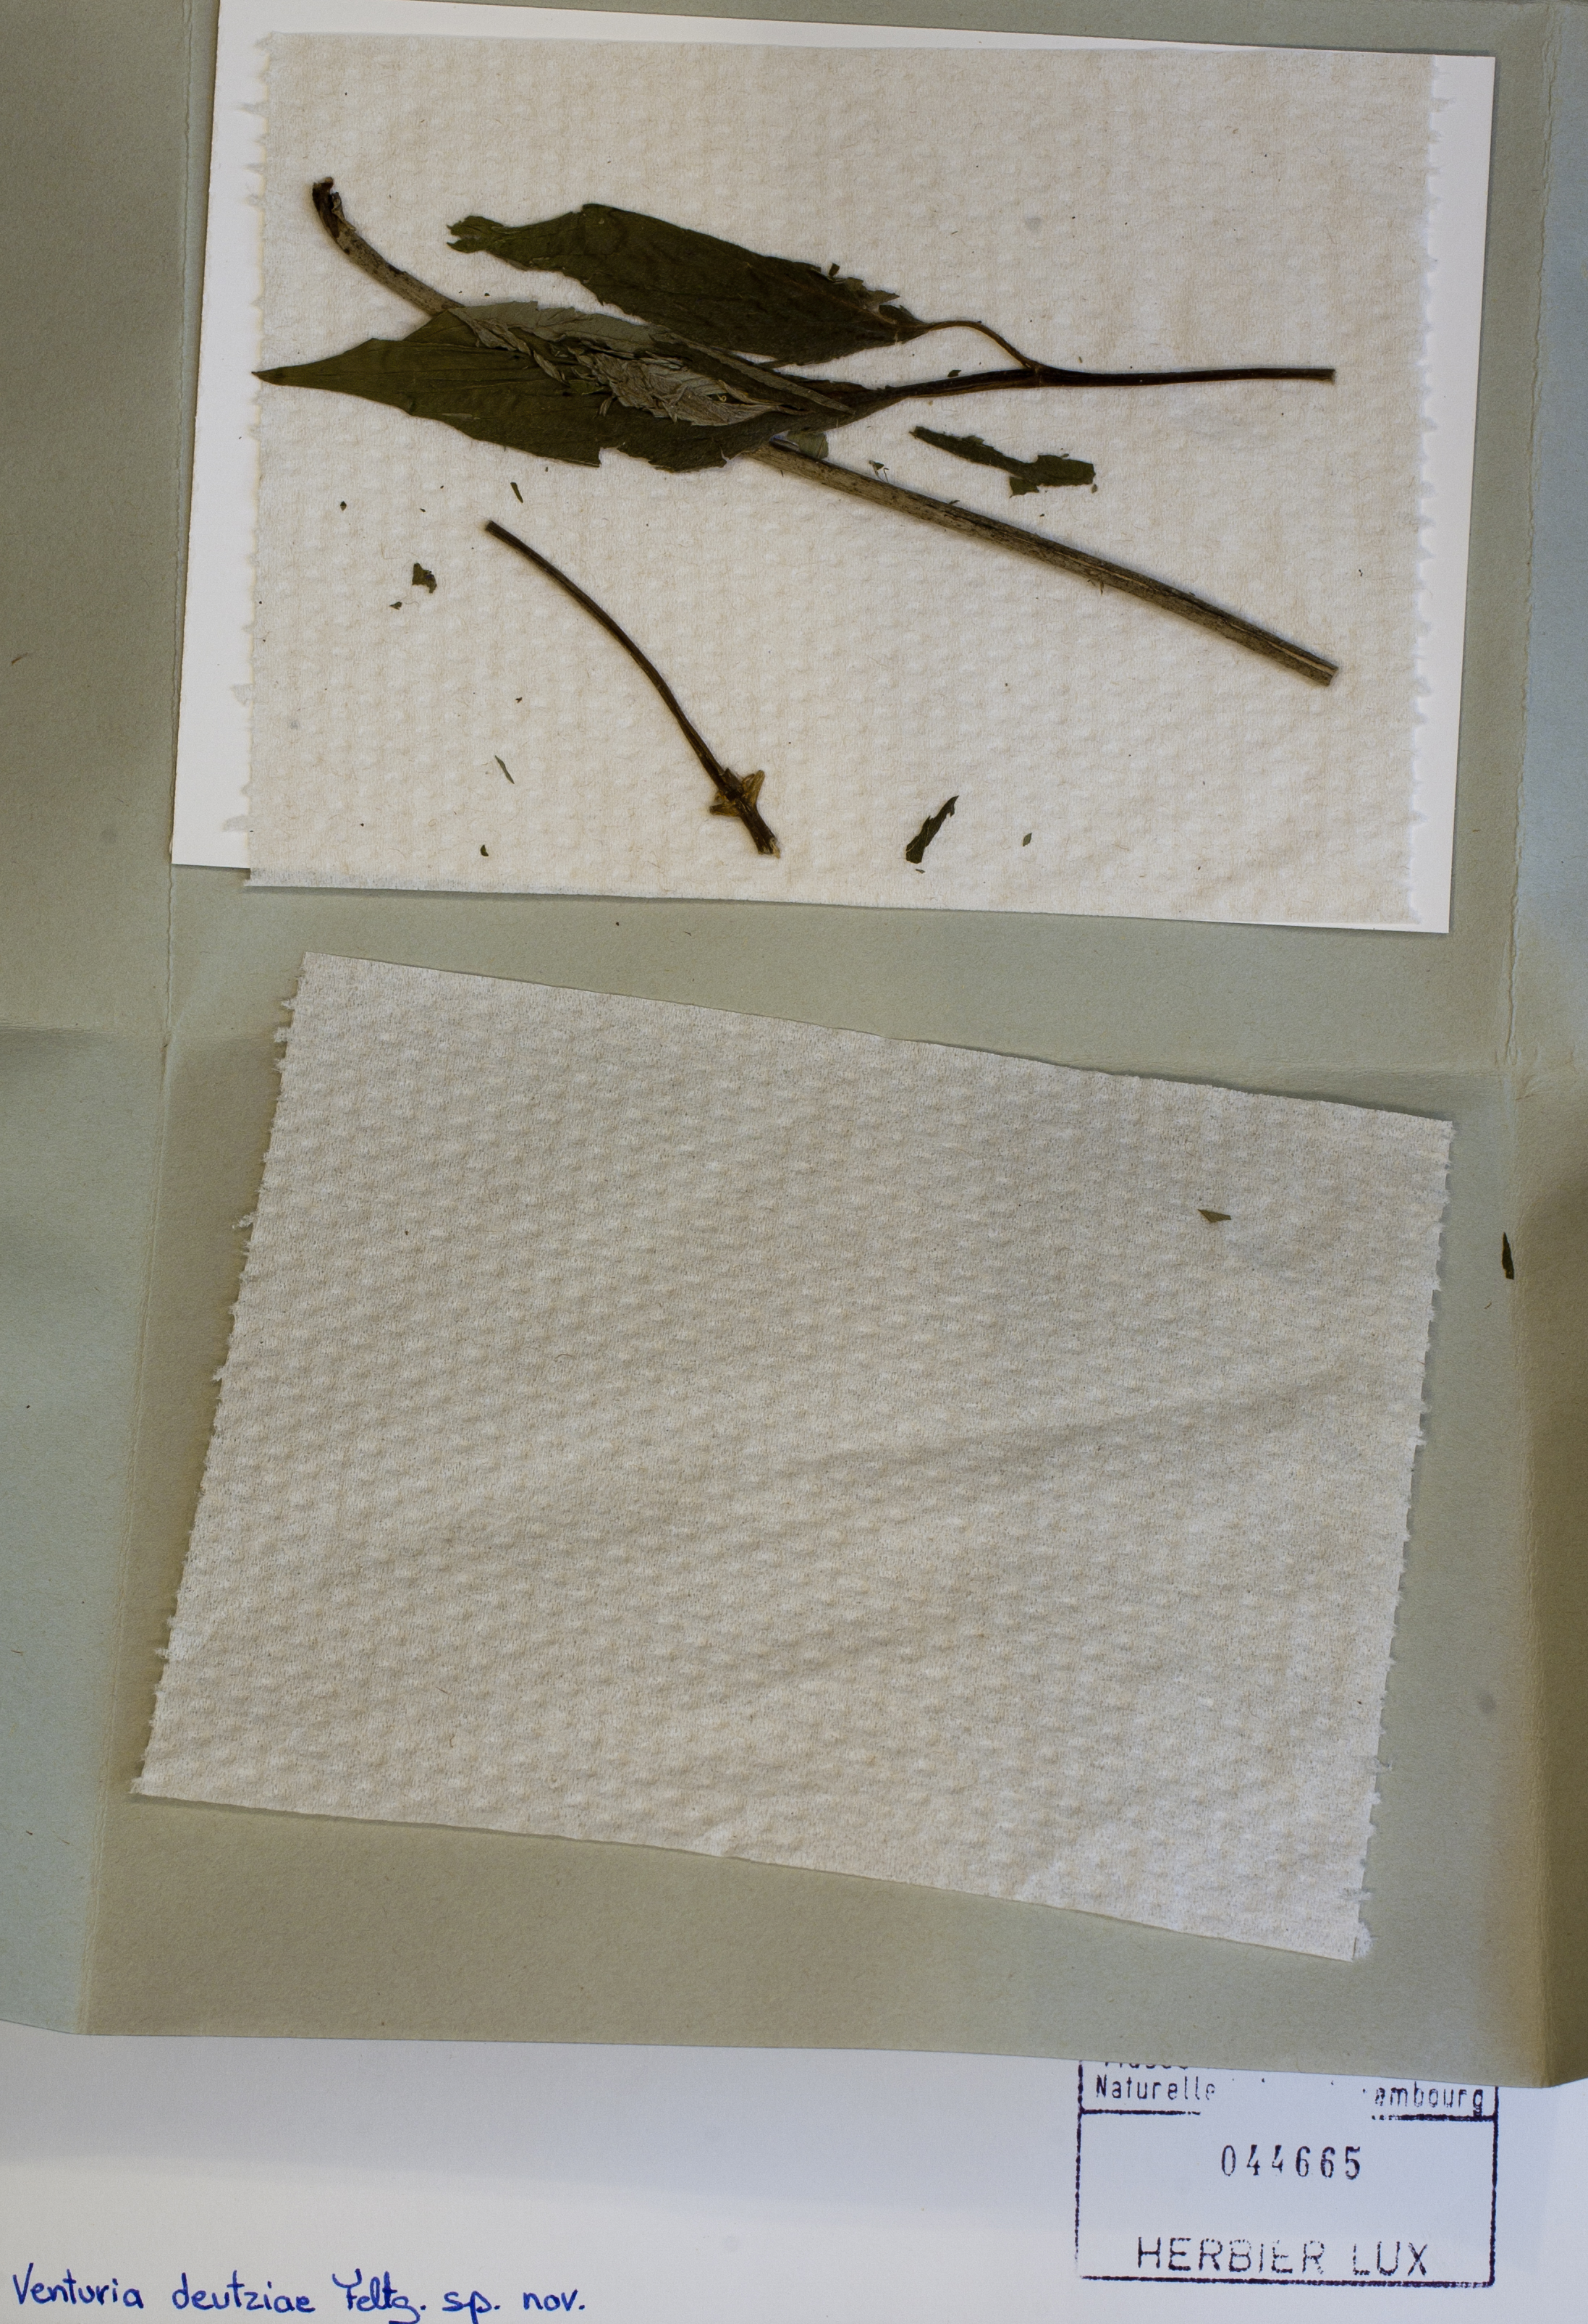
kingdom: Fungi
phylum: Ascomycota
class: Dothideomycetes
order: Venturiales
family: Venturiaceae
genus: Venturia
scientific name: Venturia deutziae
